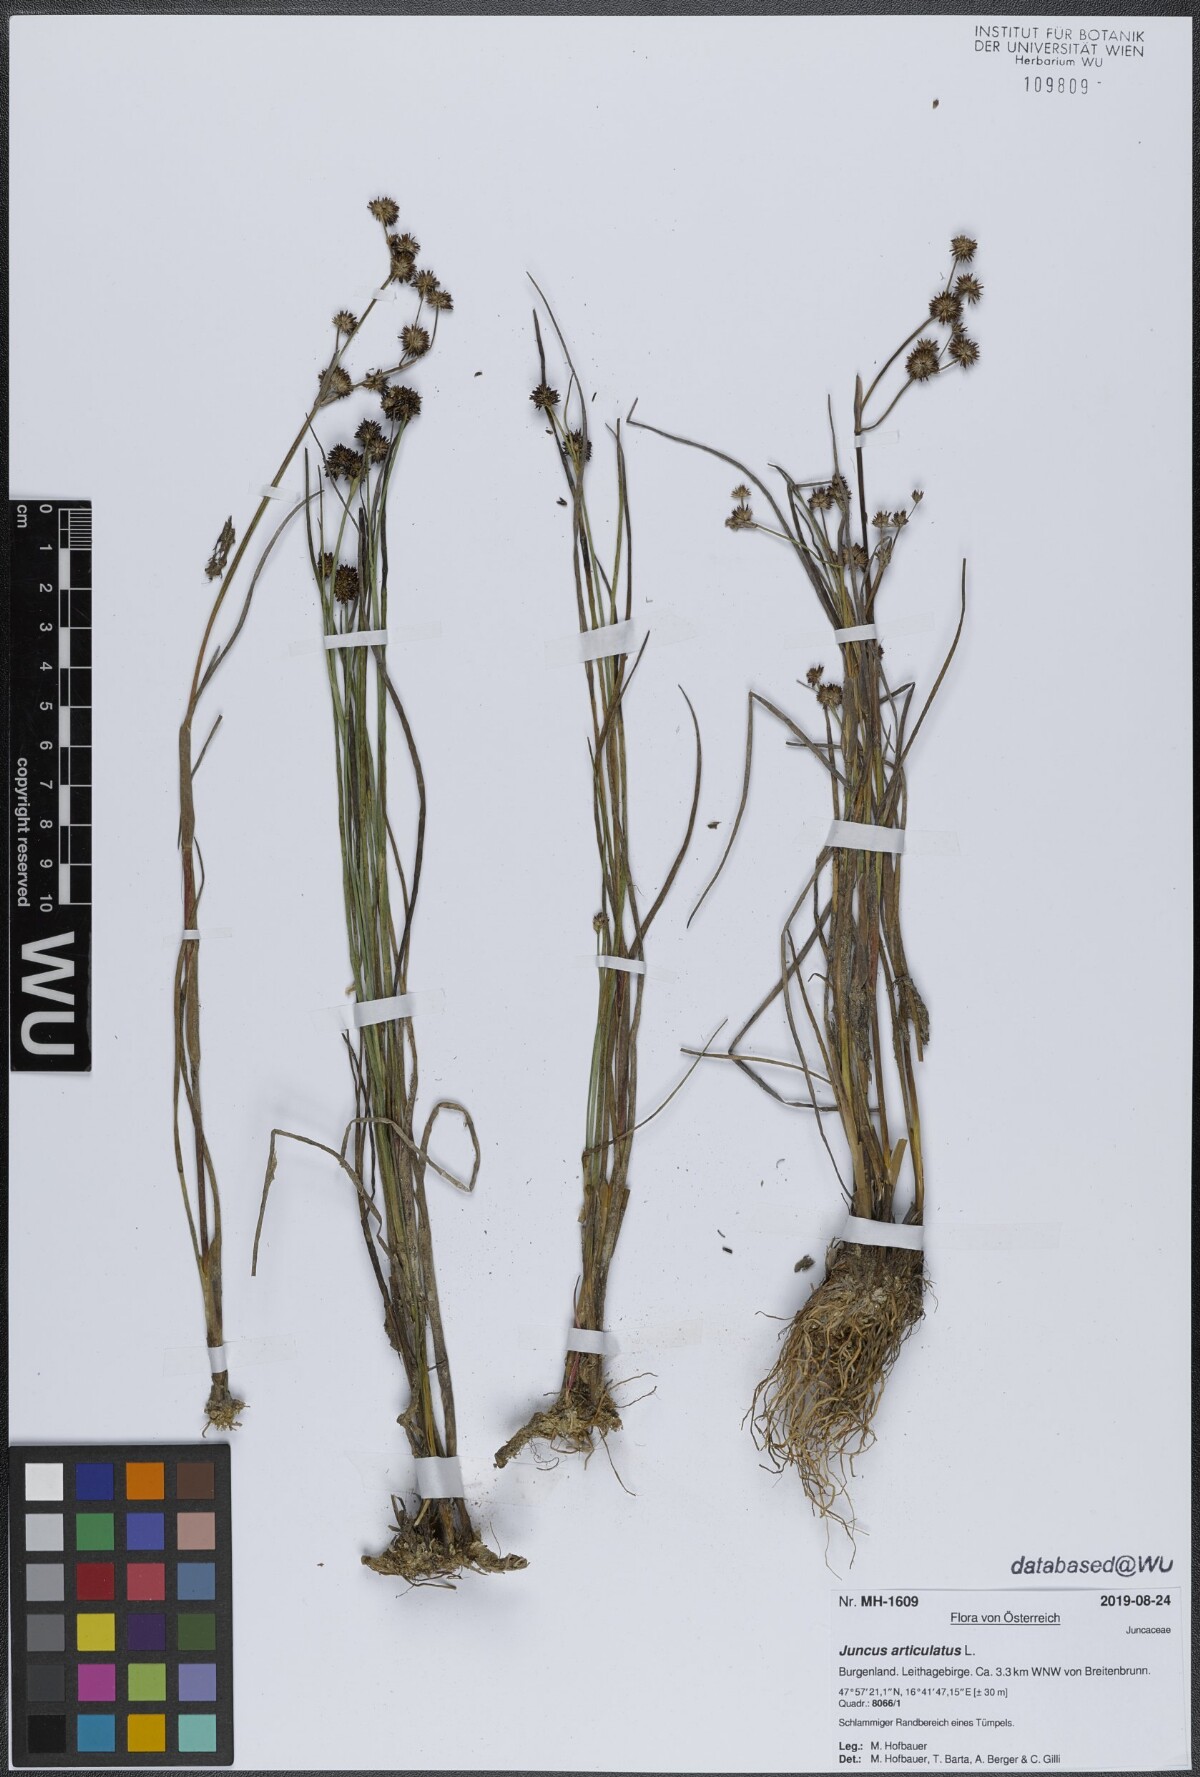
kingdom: Plantae
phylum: Tracheophyta
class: Liliopsida
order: Poales
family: Juncaceae
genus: Juncus
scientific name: Juncus articulatus
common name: Jointed rush
